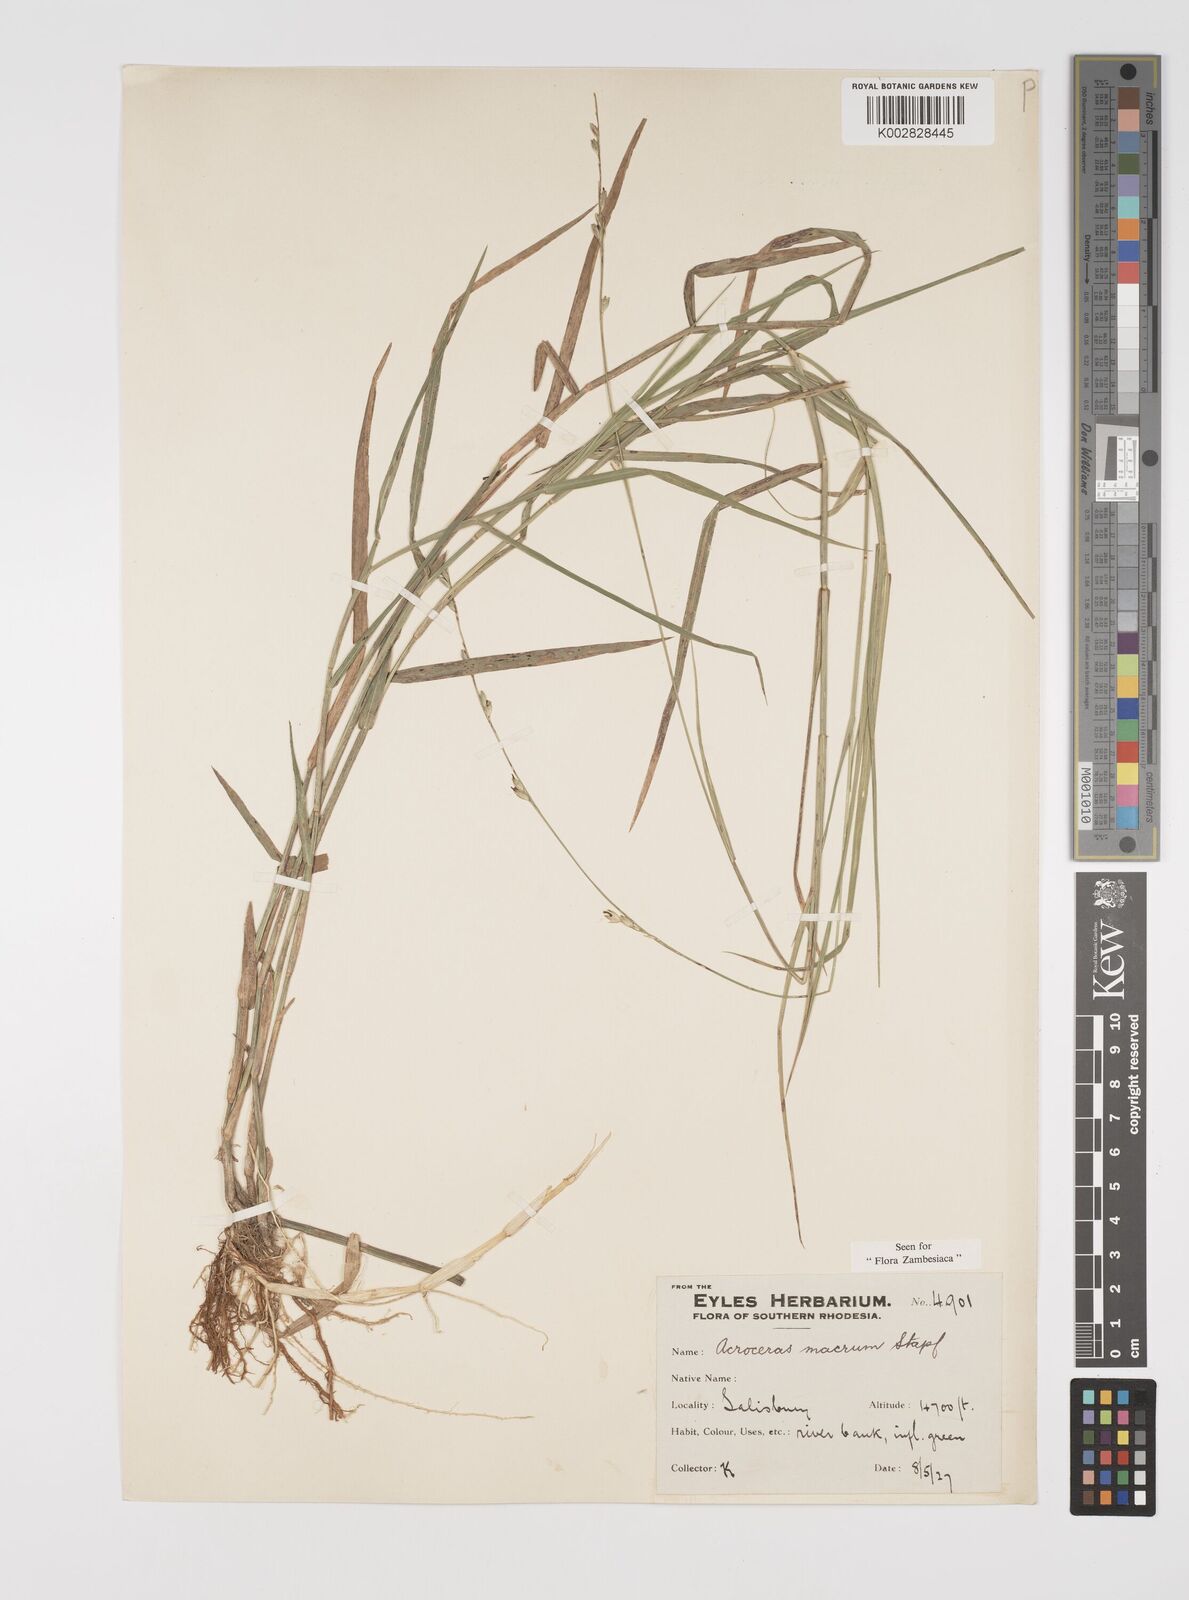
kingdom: Plantae
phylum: Tracheophyta
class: Liliopsida
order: Poales
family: Poaceae
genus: Acroceras
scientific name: Acroceras macrum
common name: Nyl grass
